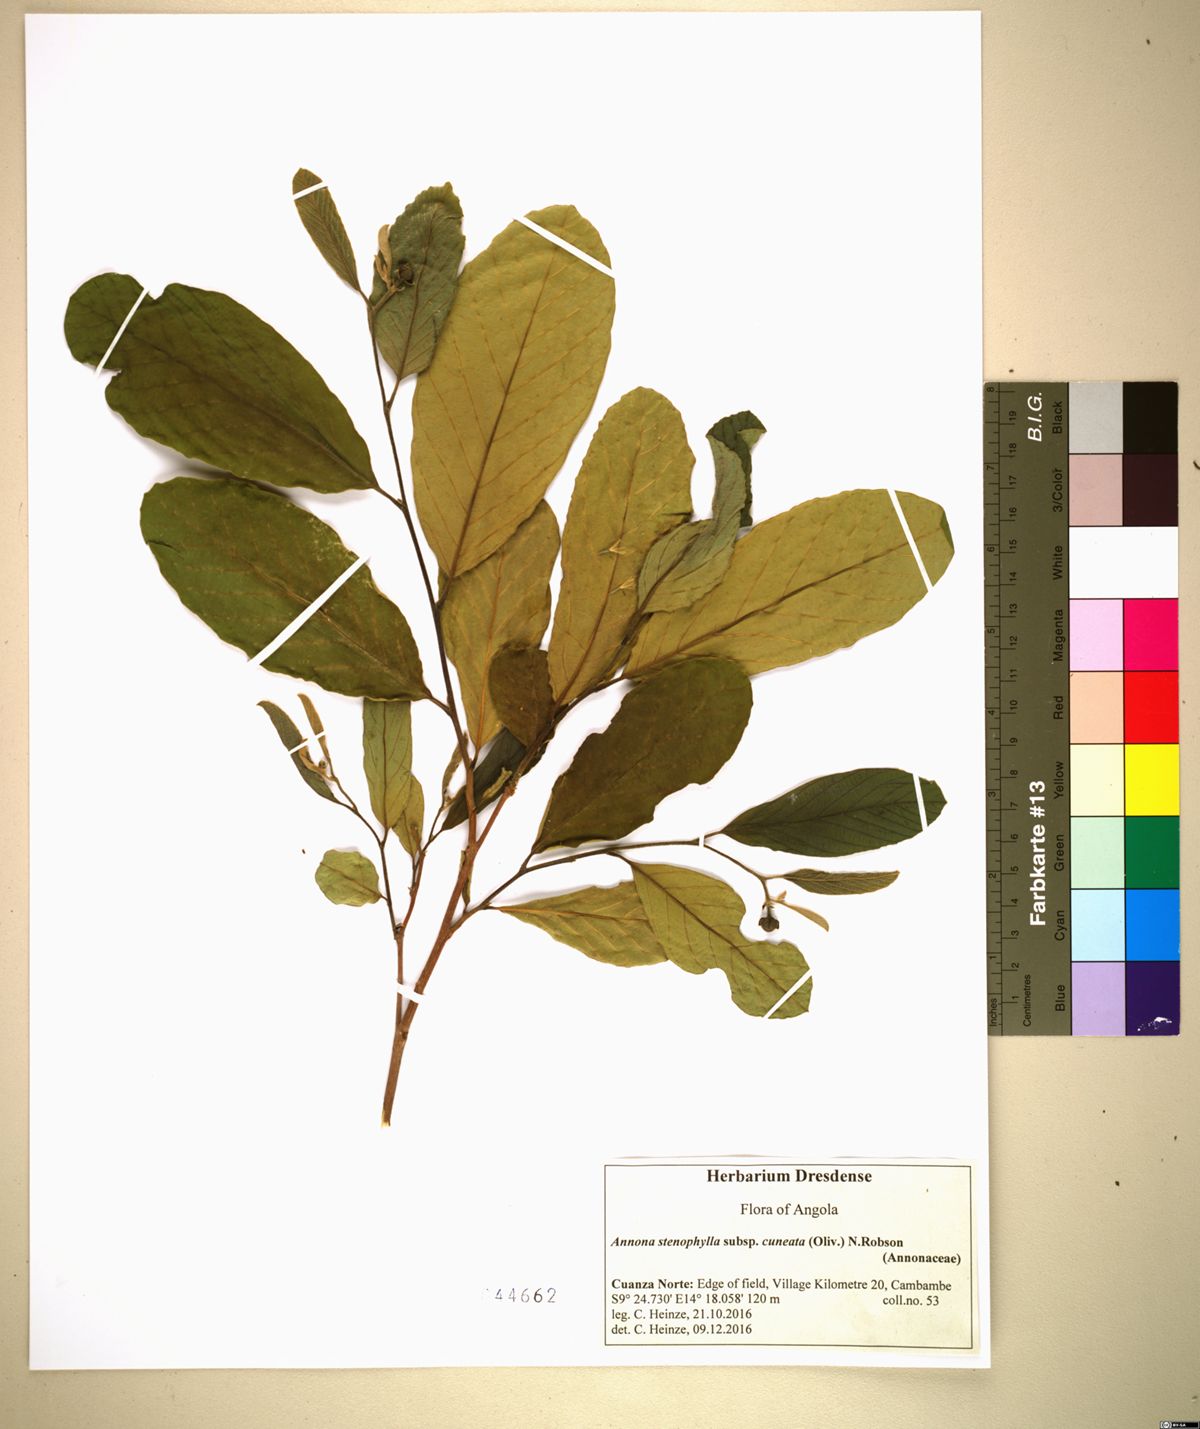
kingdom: Plantae
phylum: Tracheophyta
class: Magnoliopsida
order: Magnoliales
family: Annonaceae
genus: Annona
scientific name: Annona stenophylla
